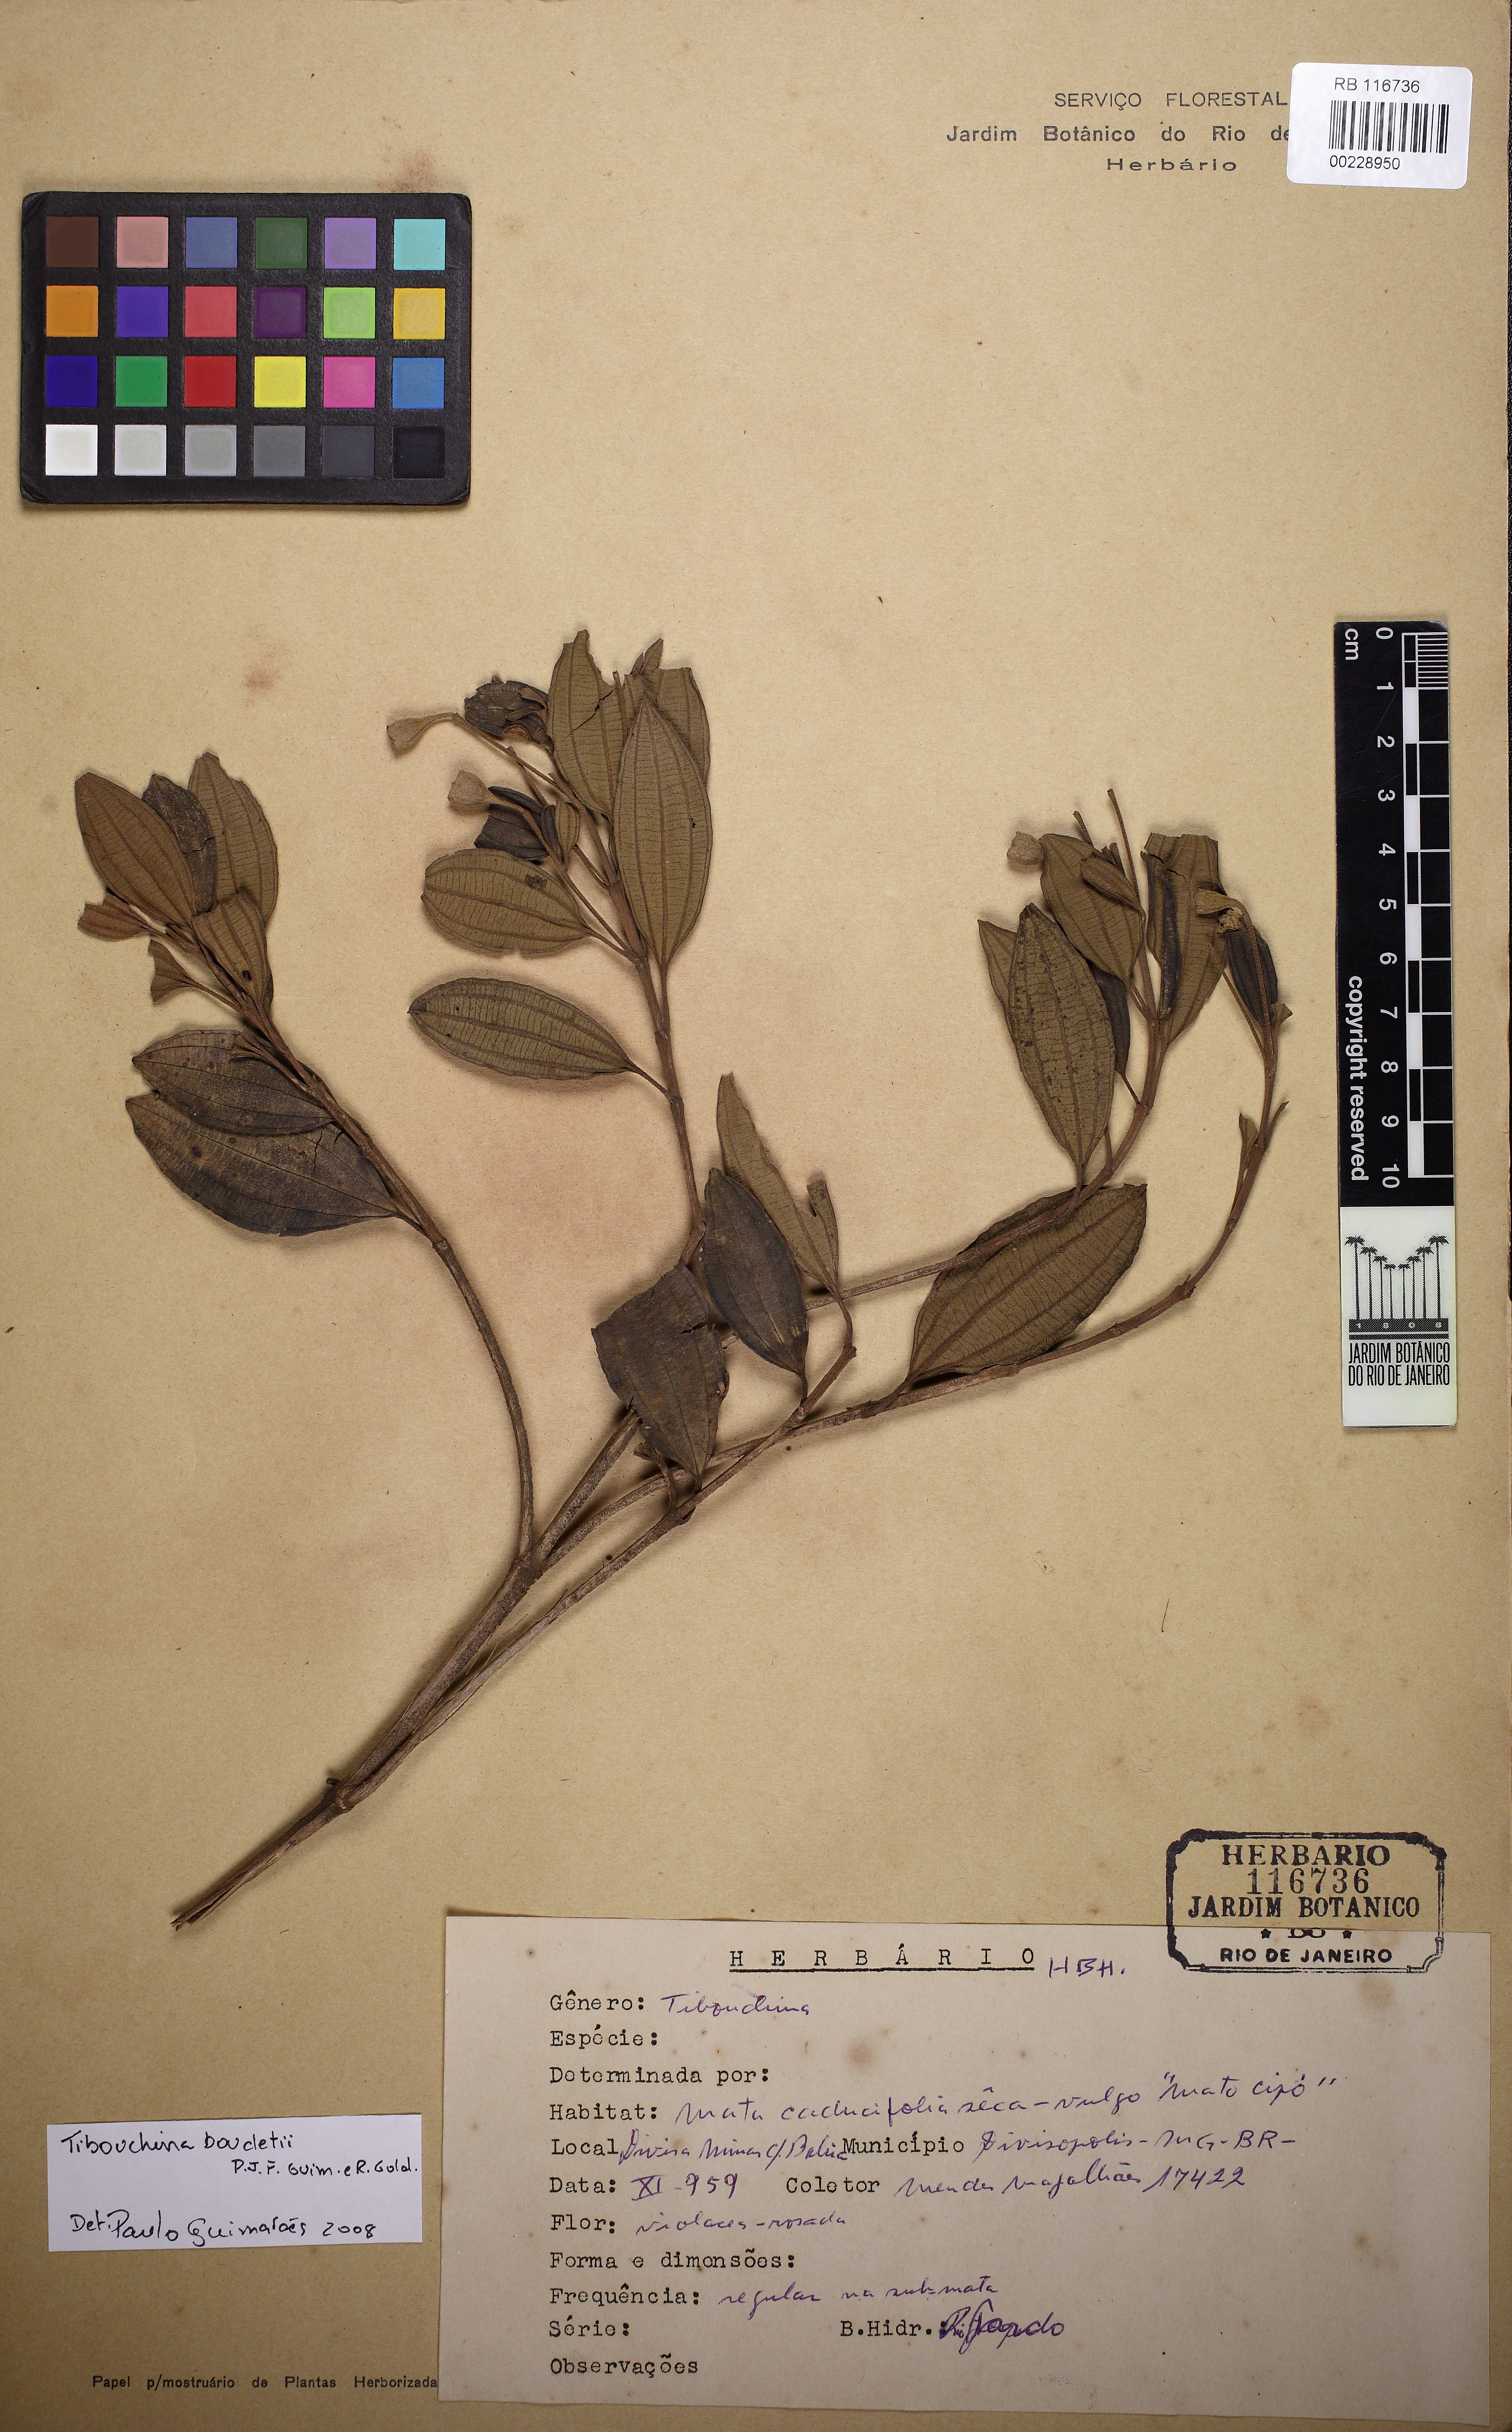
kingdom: Plantae
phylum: Tracheophyta
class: Magnoliopsida
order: Myrtales
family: Melastomataceae
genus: Pleroma
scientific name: Pleroma boudetii
